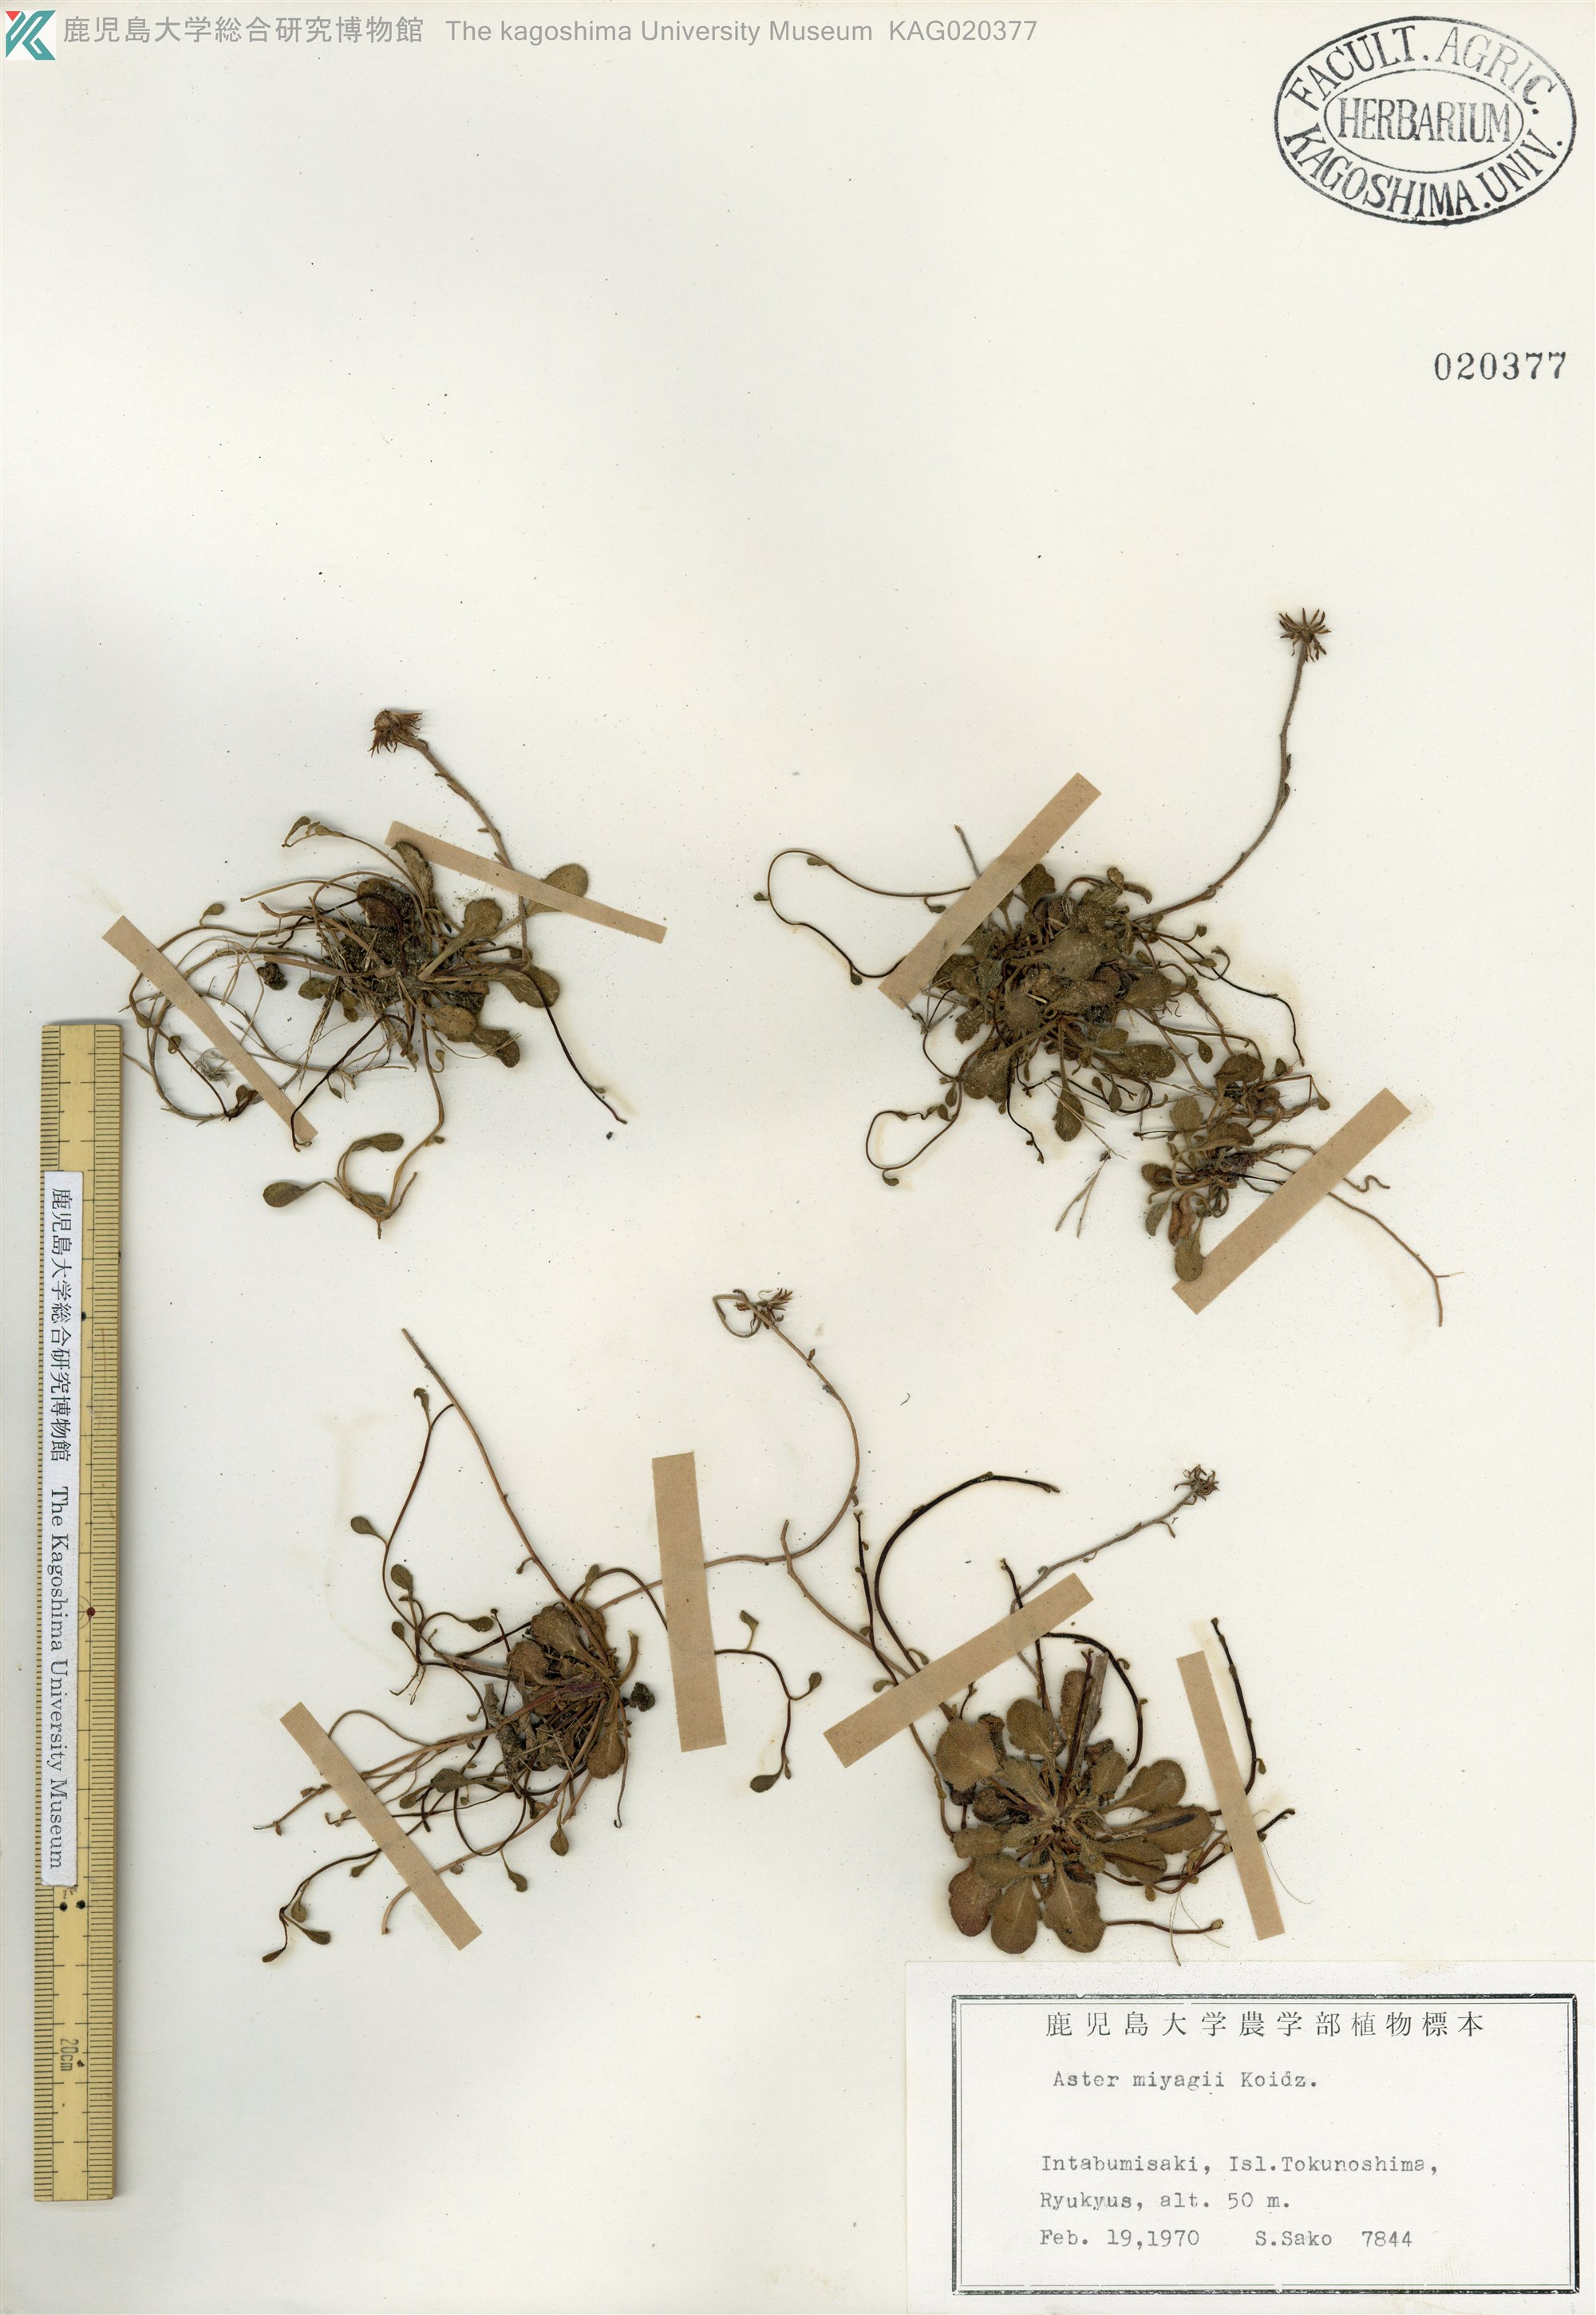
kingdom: Plantae
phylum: Tracheophyta
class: Magnoliopsida
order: Asterales
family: Asteraceae
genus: Aster
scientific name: Aster miyagii
